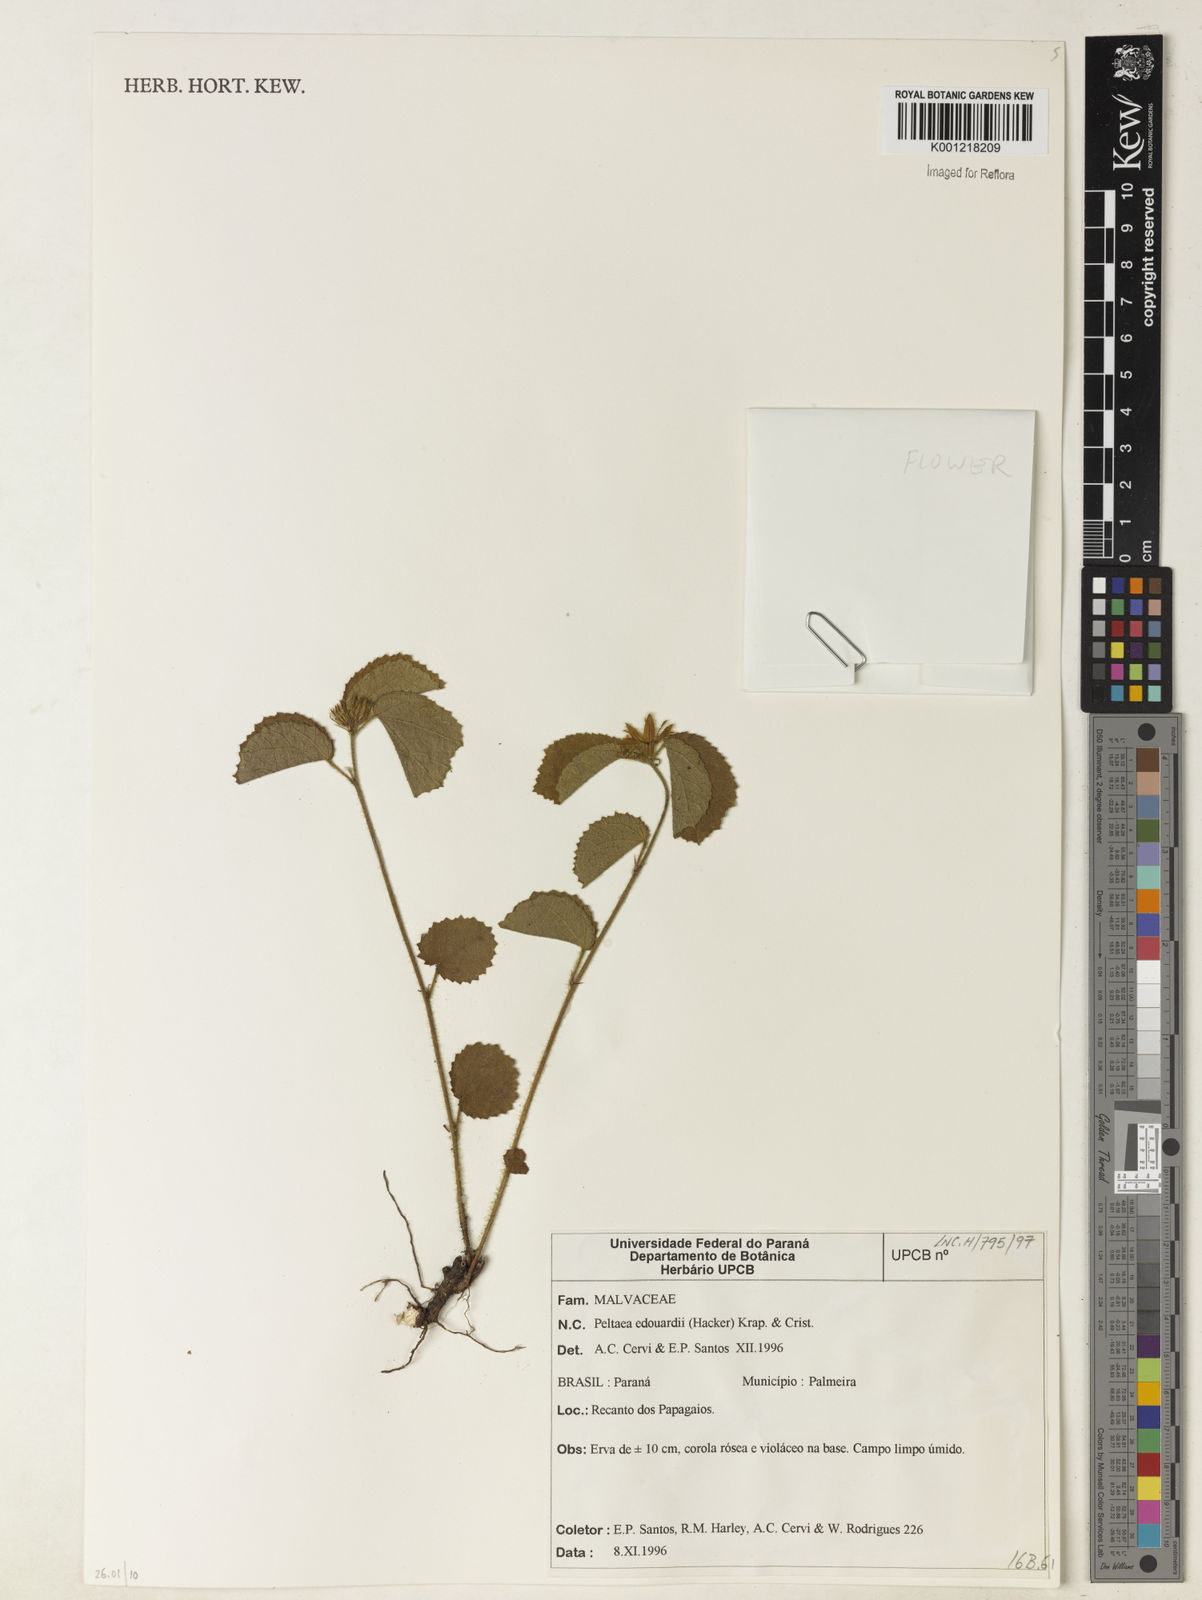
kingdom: Plantae
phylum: Tracheophyta
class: Magnoliopsida
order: Malvales
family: Malvaceae
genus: Peltaea
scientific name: Peltaea
